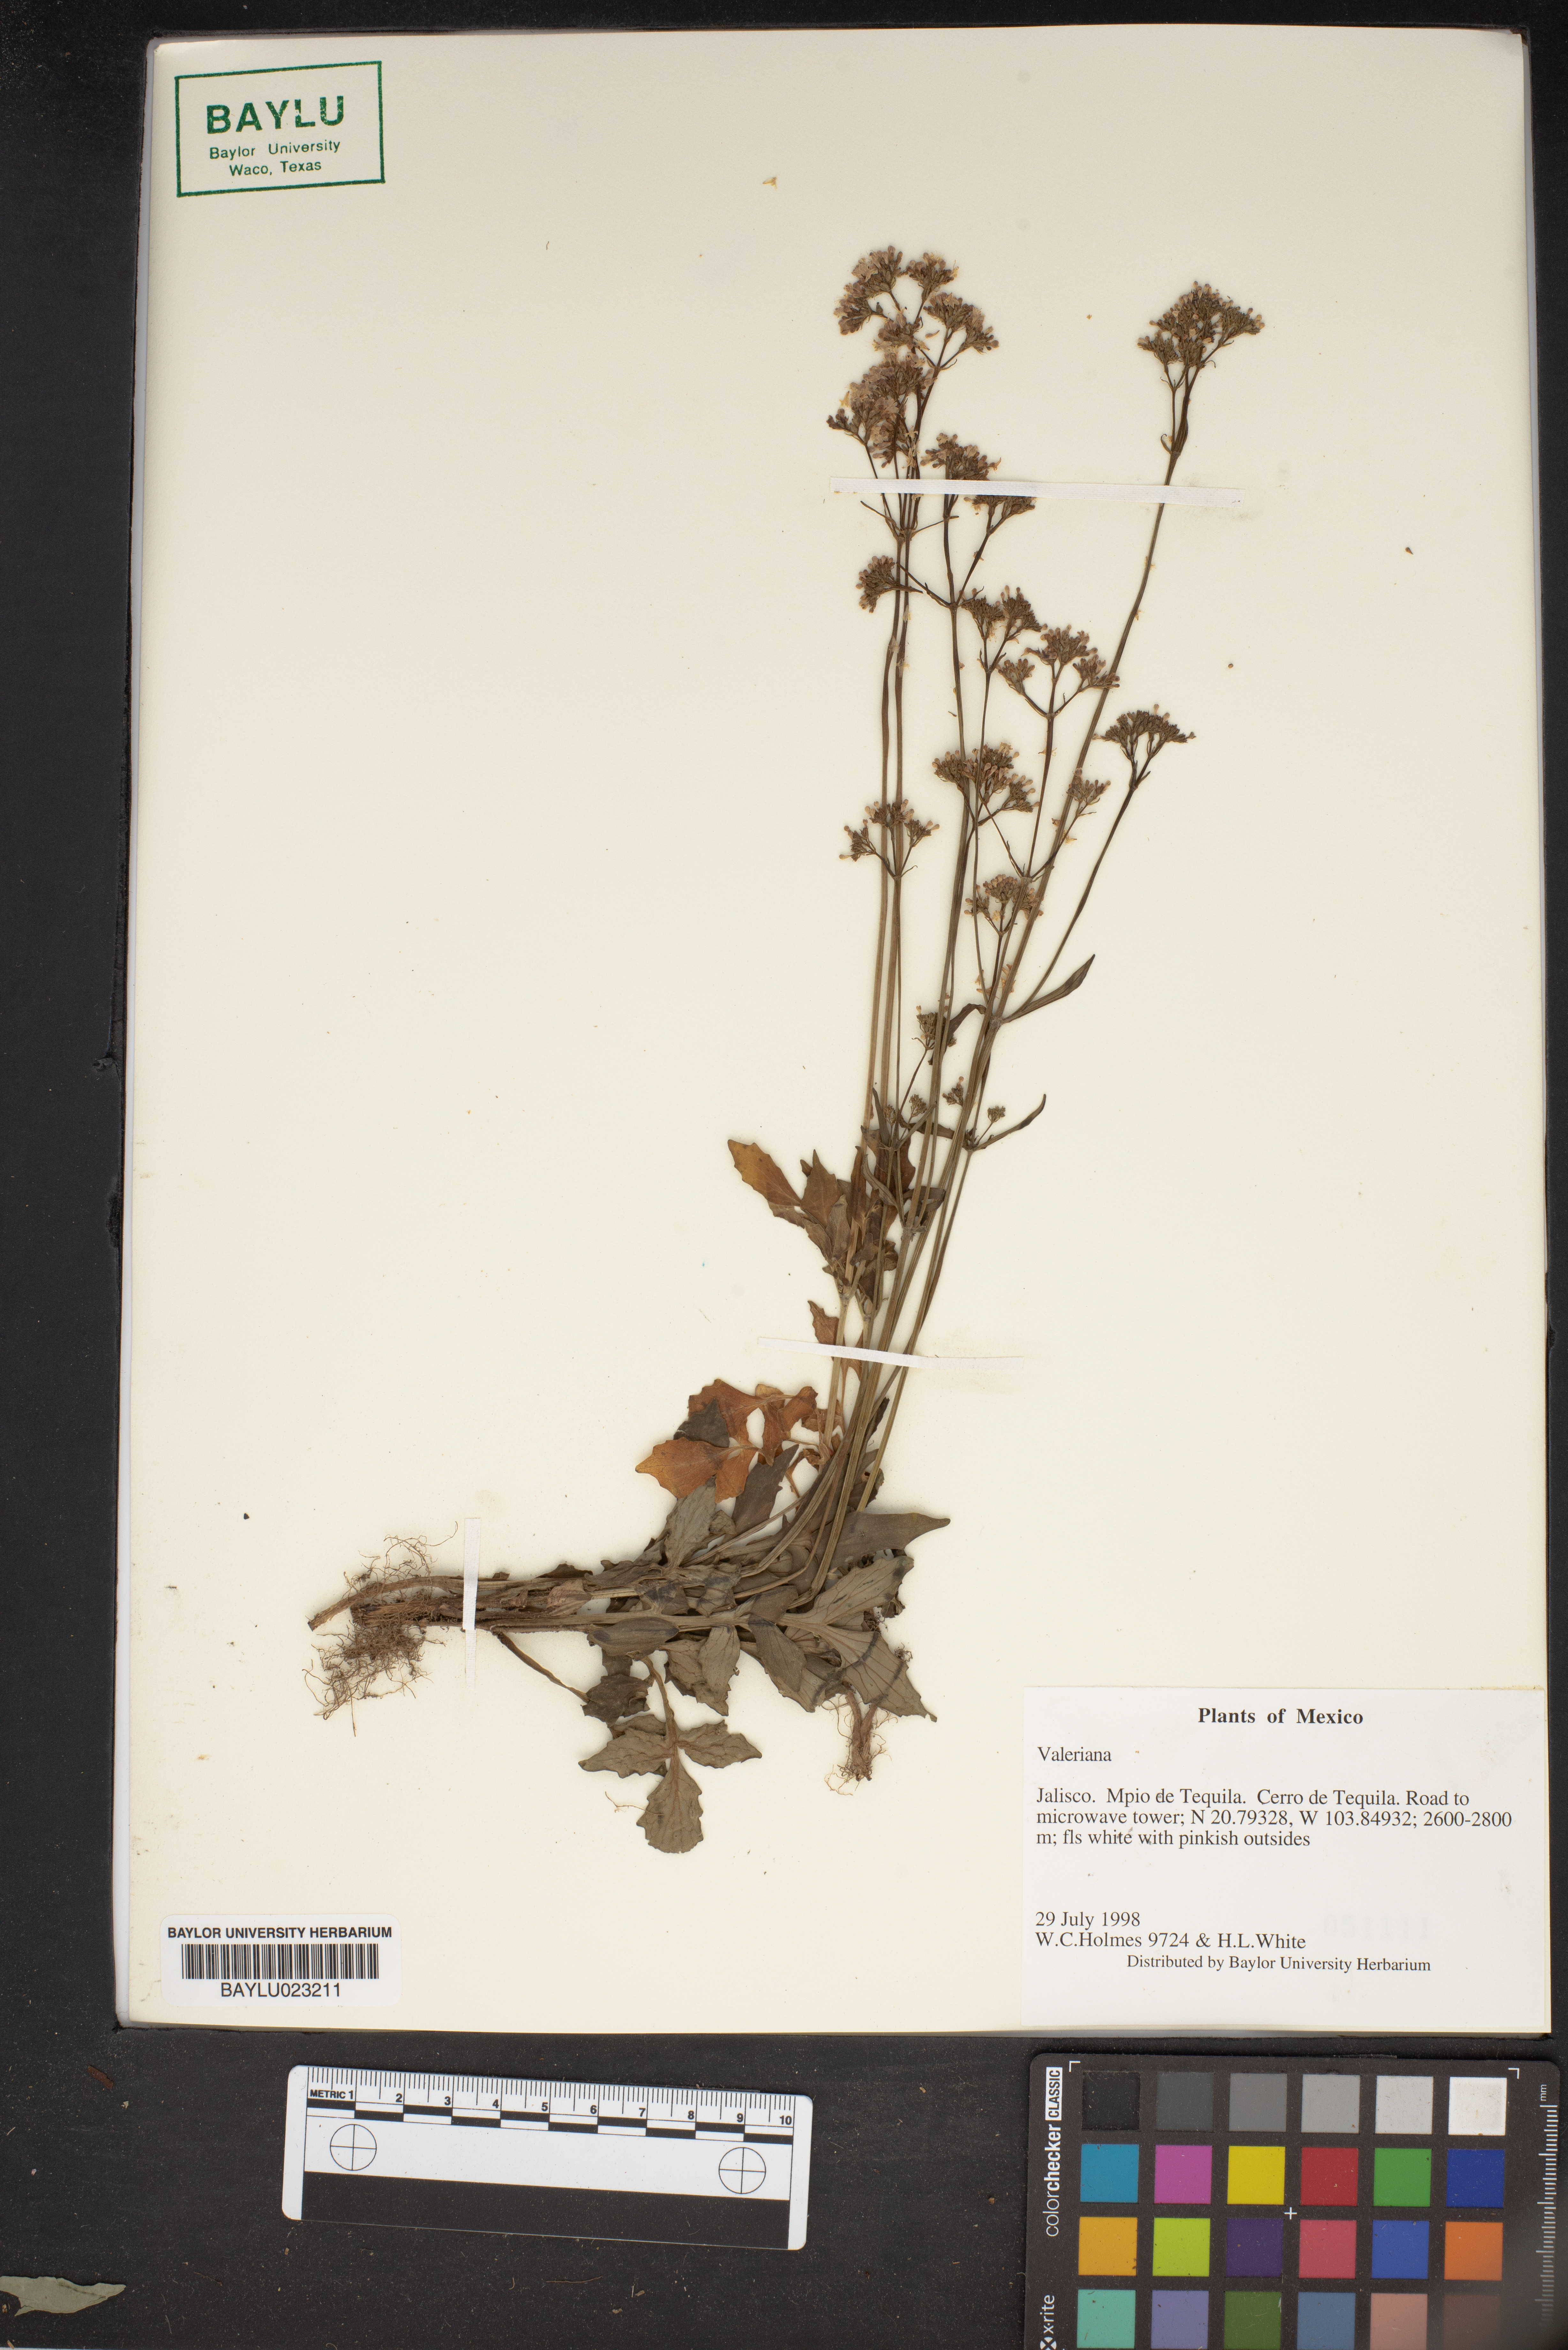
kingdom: Plantae
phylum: Tracheophyta
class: Magnoliopsida
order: Dipsacales
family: Caprifoliaceae
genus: Valeriana
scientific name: Valeriana
